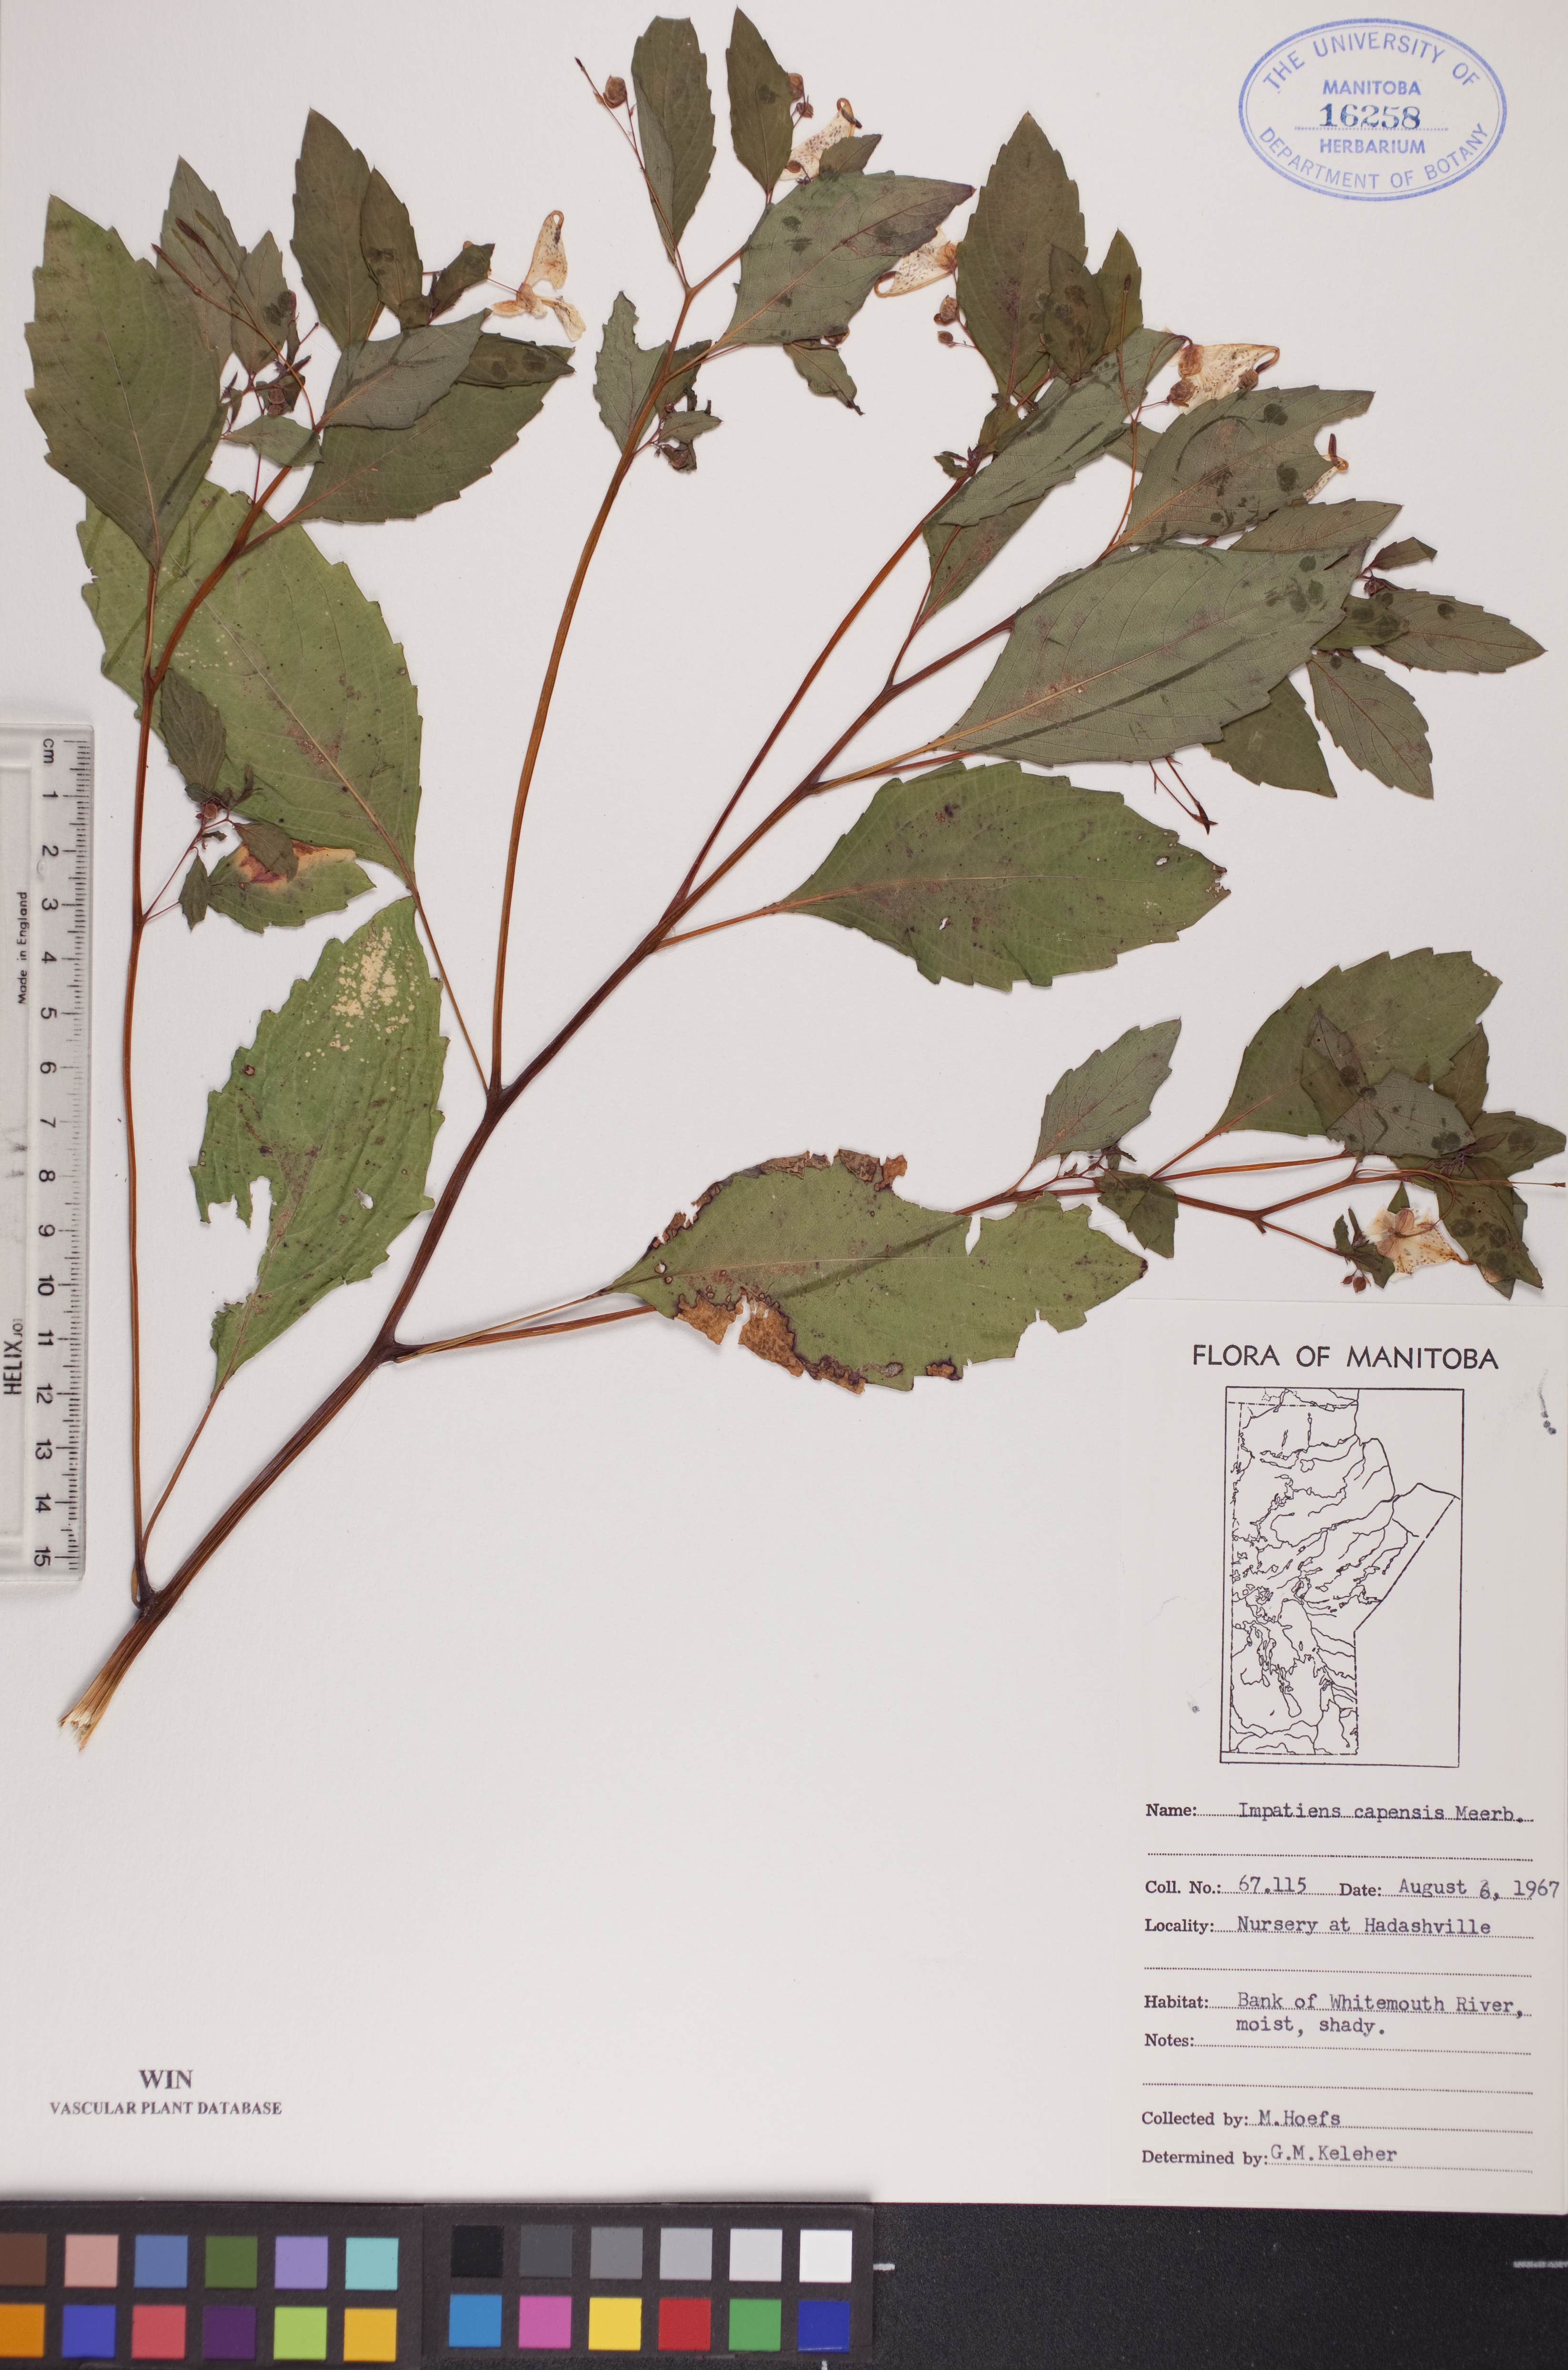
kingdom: Plantae
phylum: Tracheophyta
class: Magnoliopsida
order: Ericales
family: Balsaminaceae
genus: Impatiens
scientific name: Impatiens capensis
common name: Orange balsam
